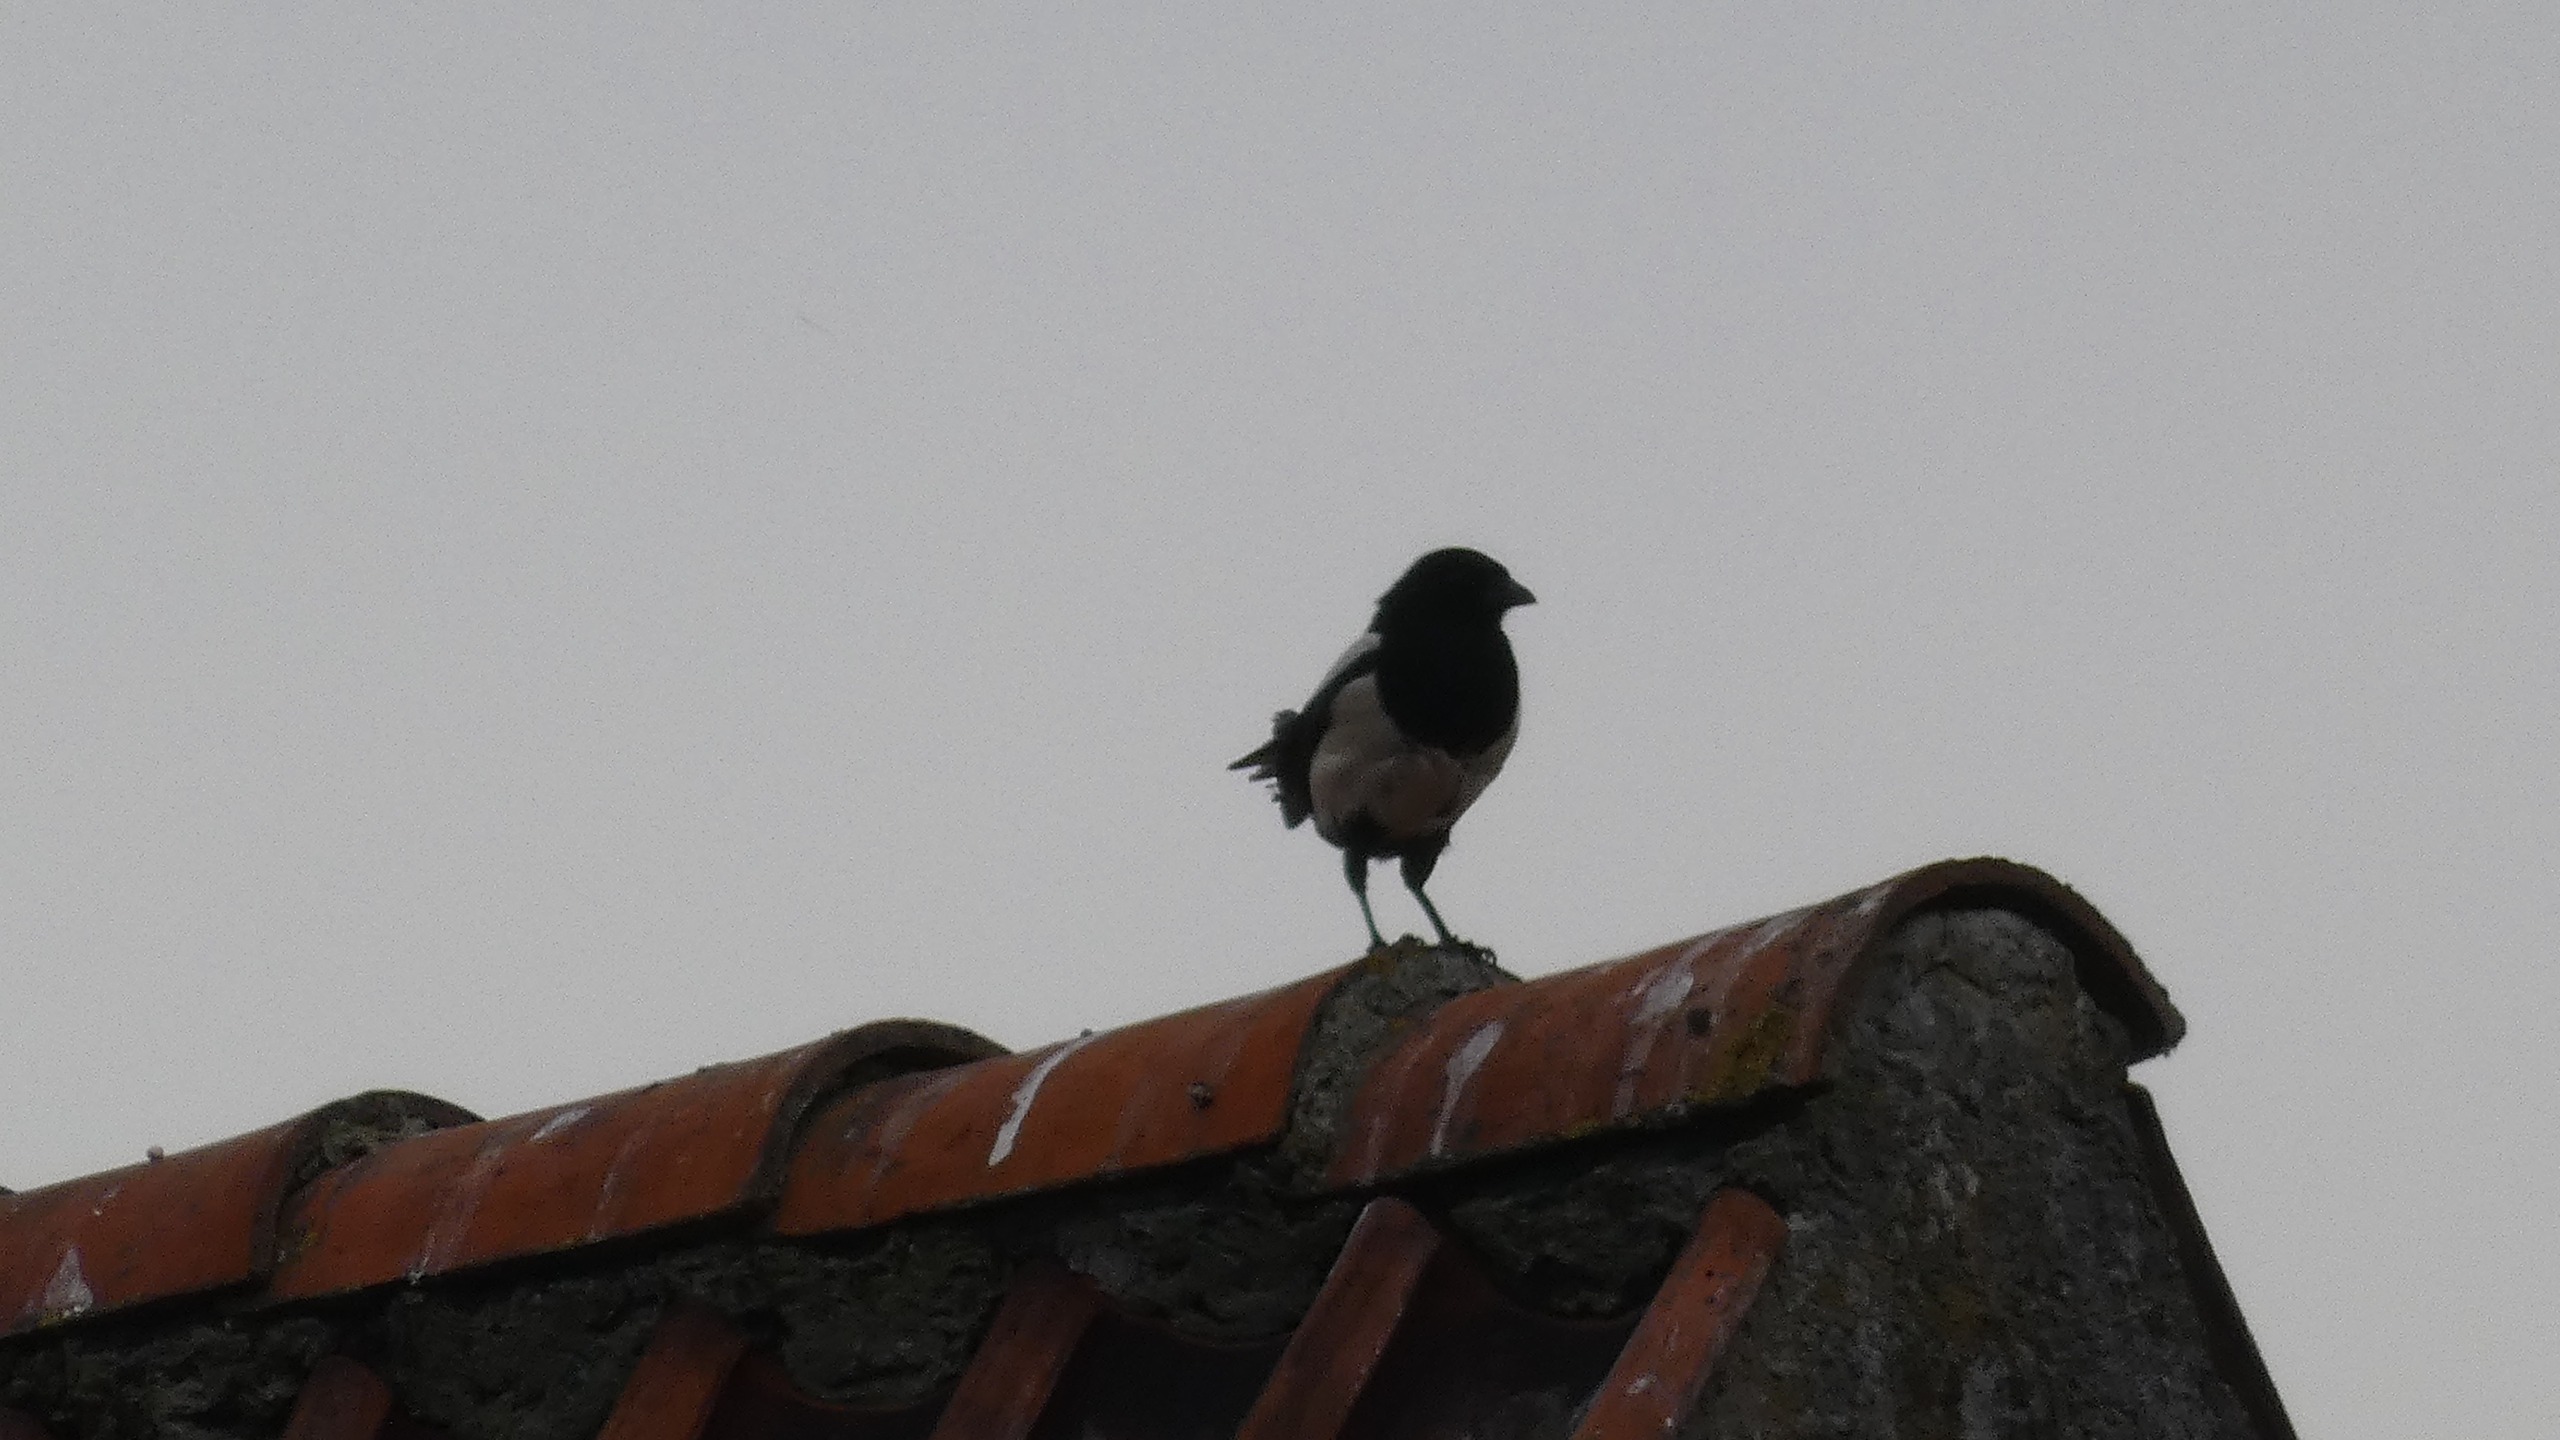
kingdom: Animalia
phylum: Chordata
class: Aves
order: Passeriformes
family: Corvidae
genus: Pica
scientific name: Pica pica
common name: Husskade
